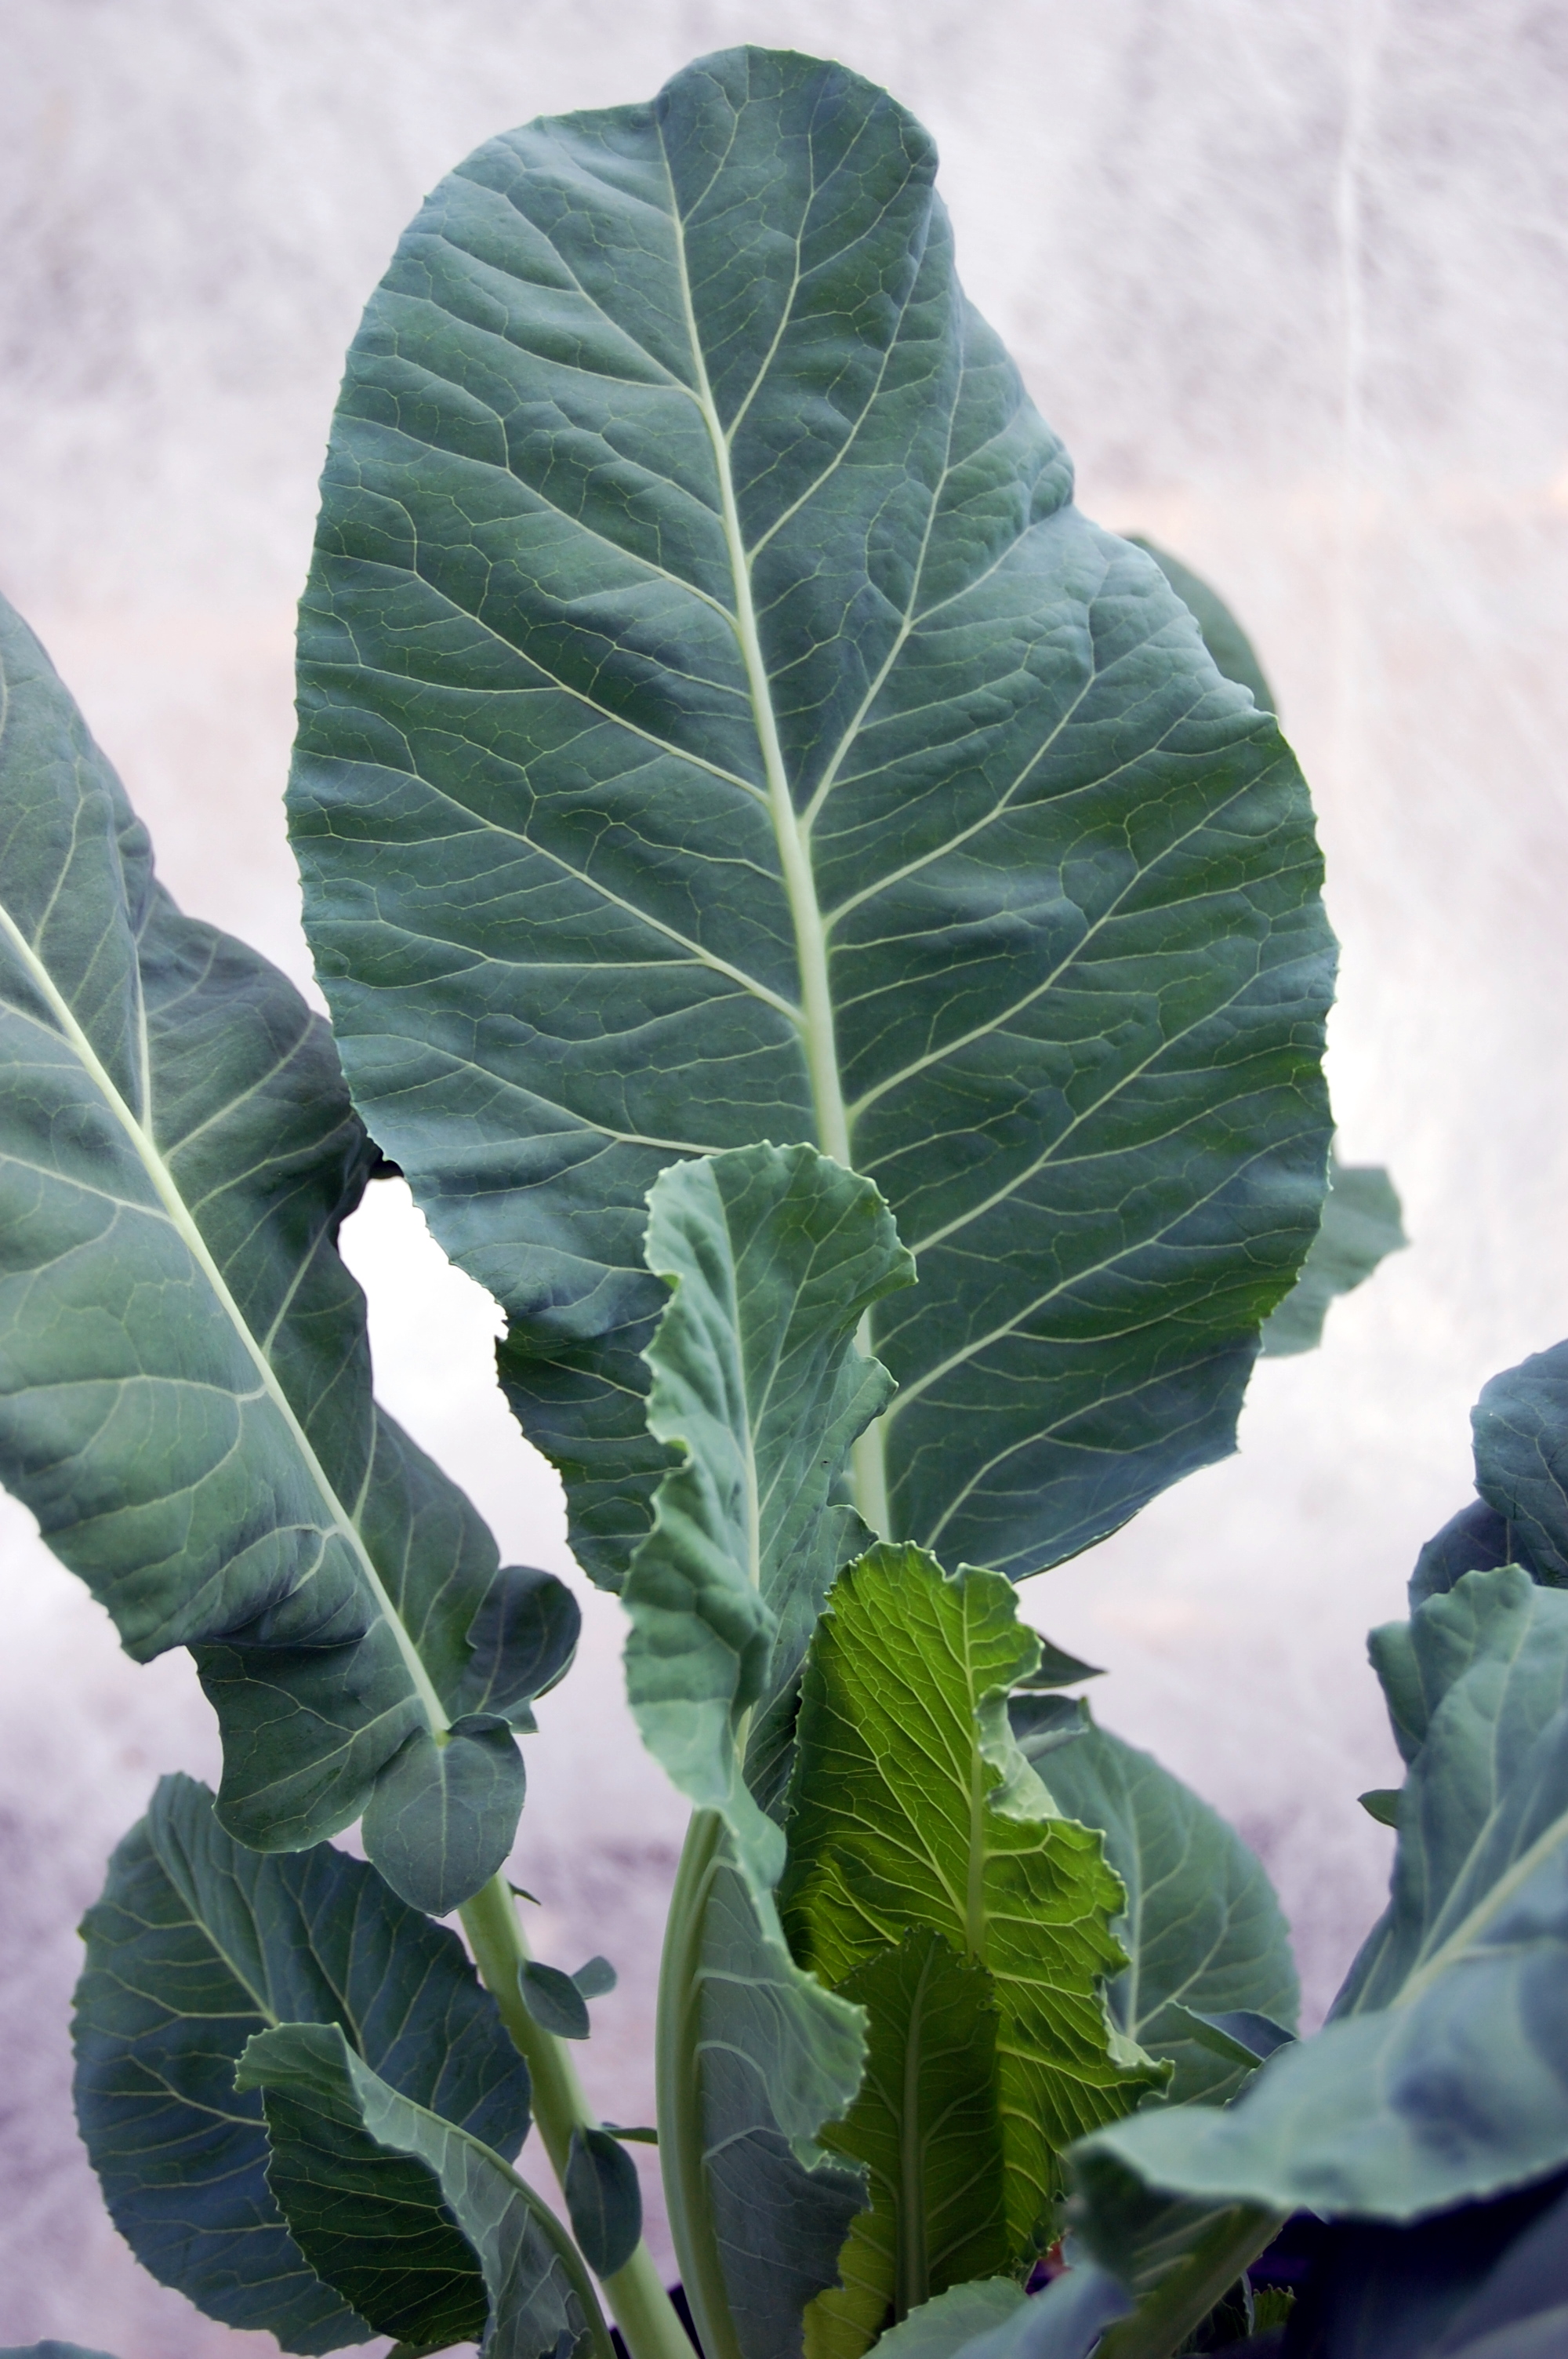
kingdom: Plantae
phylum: Tracheophyta
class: Magnoliopsida
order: Brassicales
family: Brassicaceae
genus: Brassica
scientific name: Brassica napus
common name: Rape
